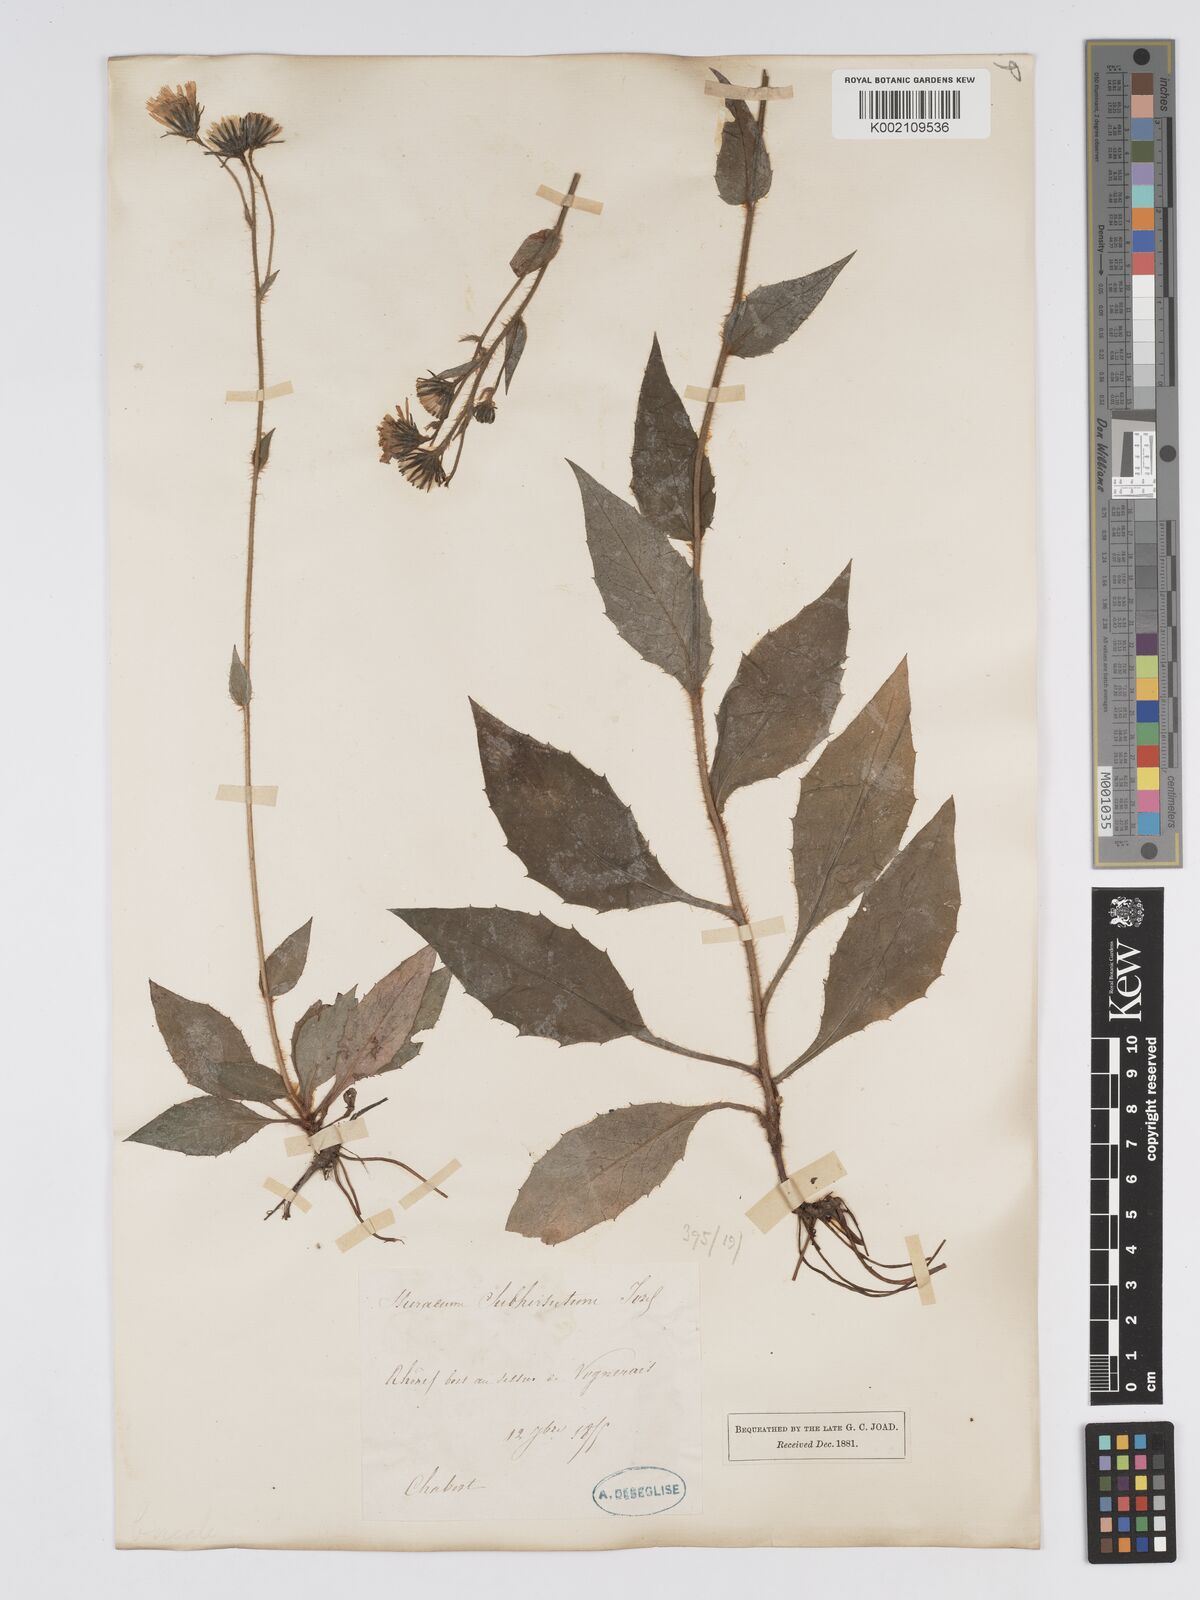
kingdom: Plantae
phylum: Tracheophyta
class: Magnoliopsida
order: Asterales
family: Asteraceae
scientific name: Asteraceae
